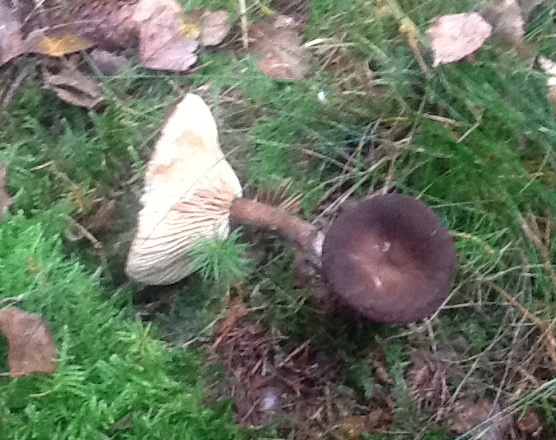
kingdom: Fungi
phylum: Basidiomycota
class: Agaricomycetes
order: Russulales
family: Russulaceae
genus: Lactarius
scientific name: Lactarius lignyotus
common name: fløjls-mælkehat
